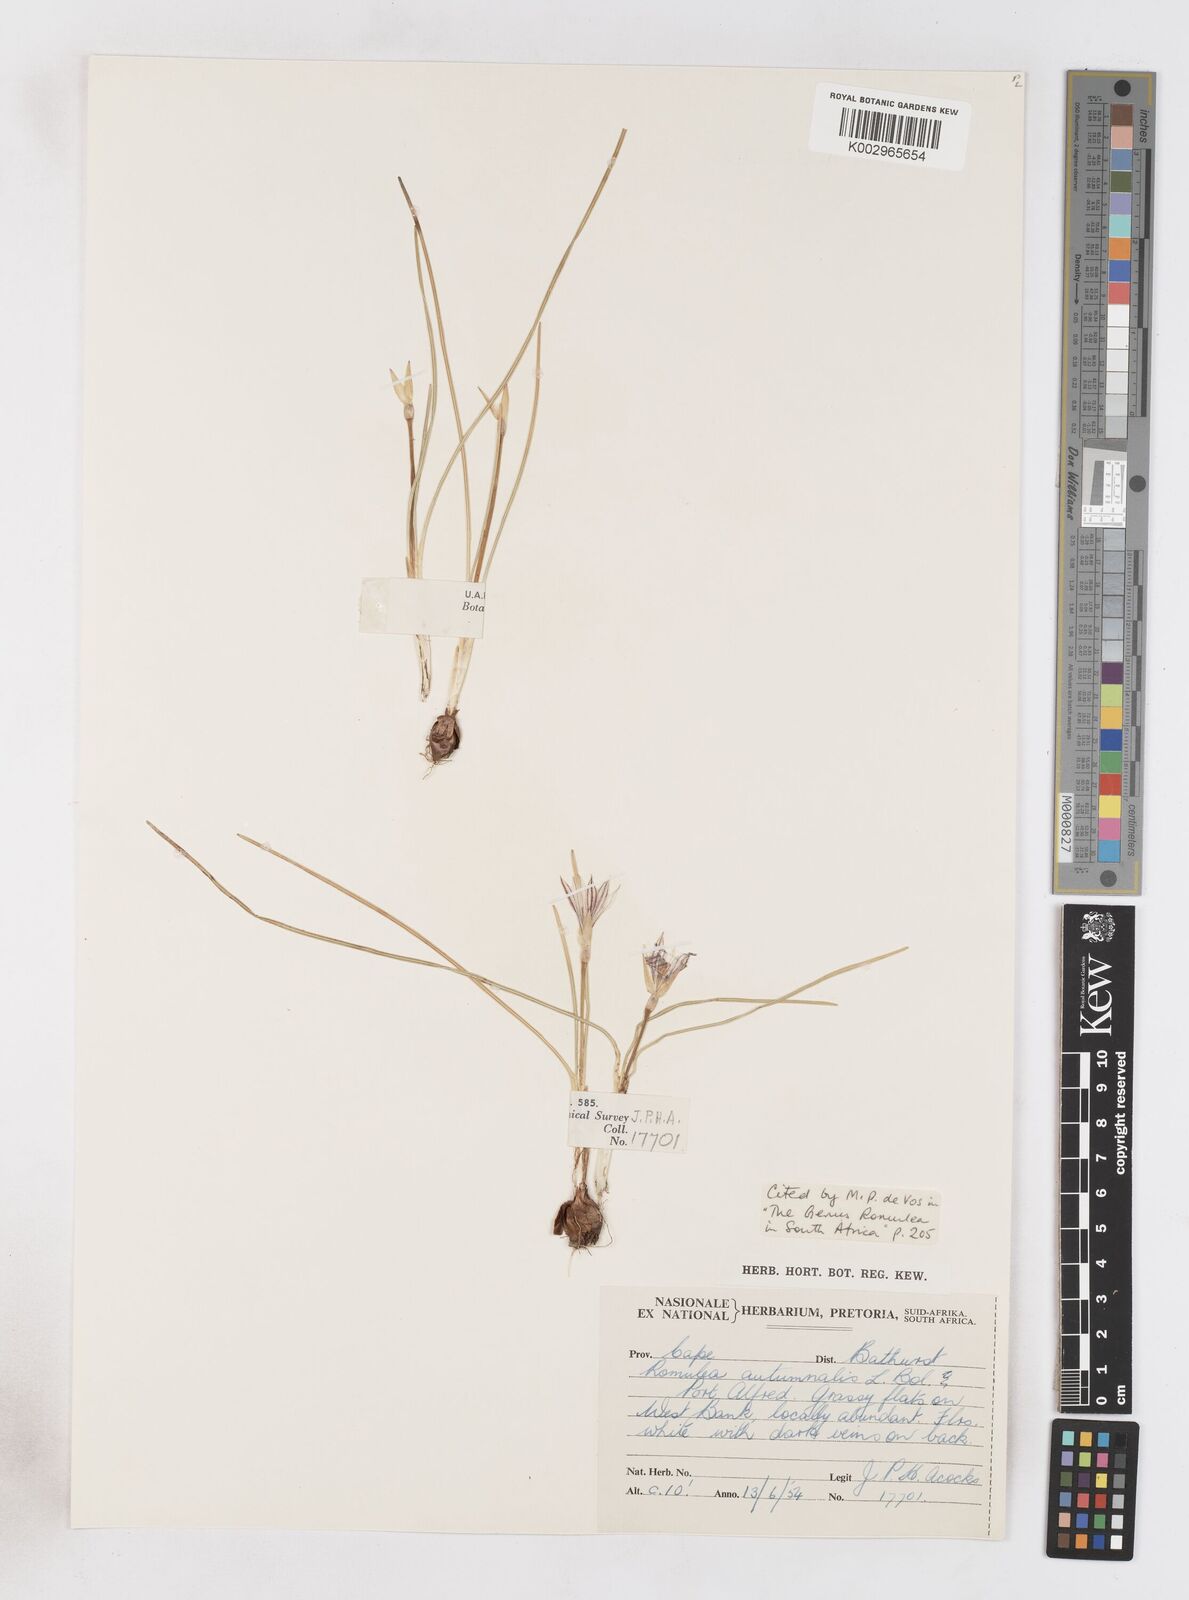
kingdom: Plantae
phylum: Tracheophyta
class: Liliopsida
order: Asparagales
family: Iridaceae
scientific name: Iridaceae
